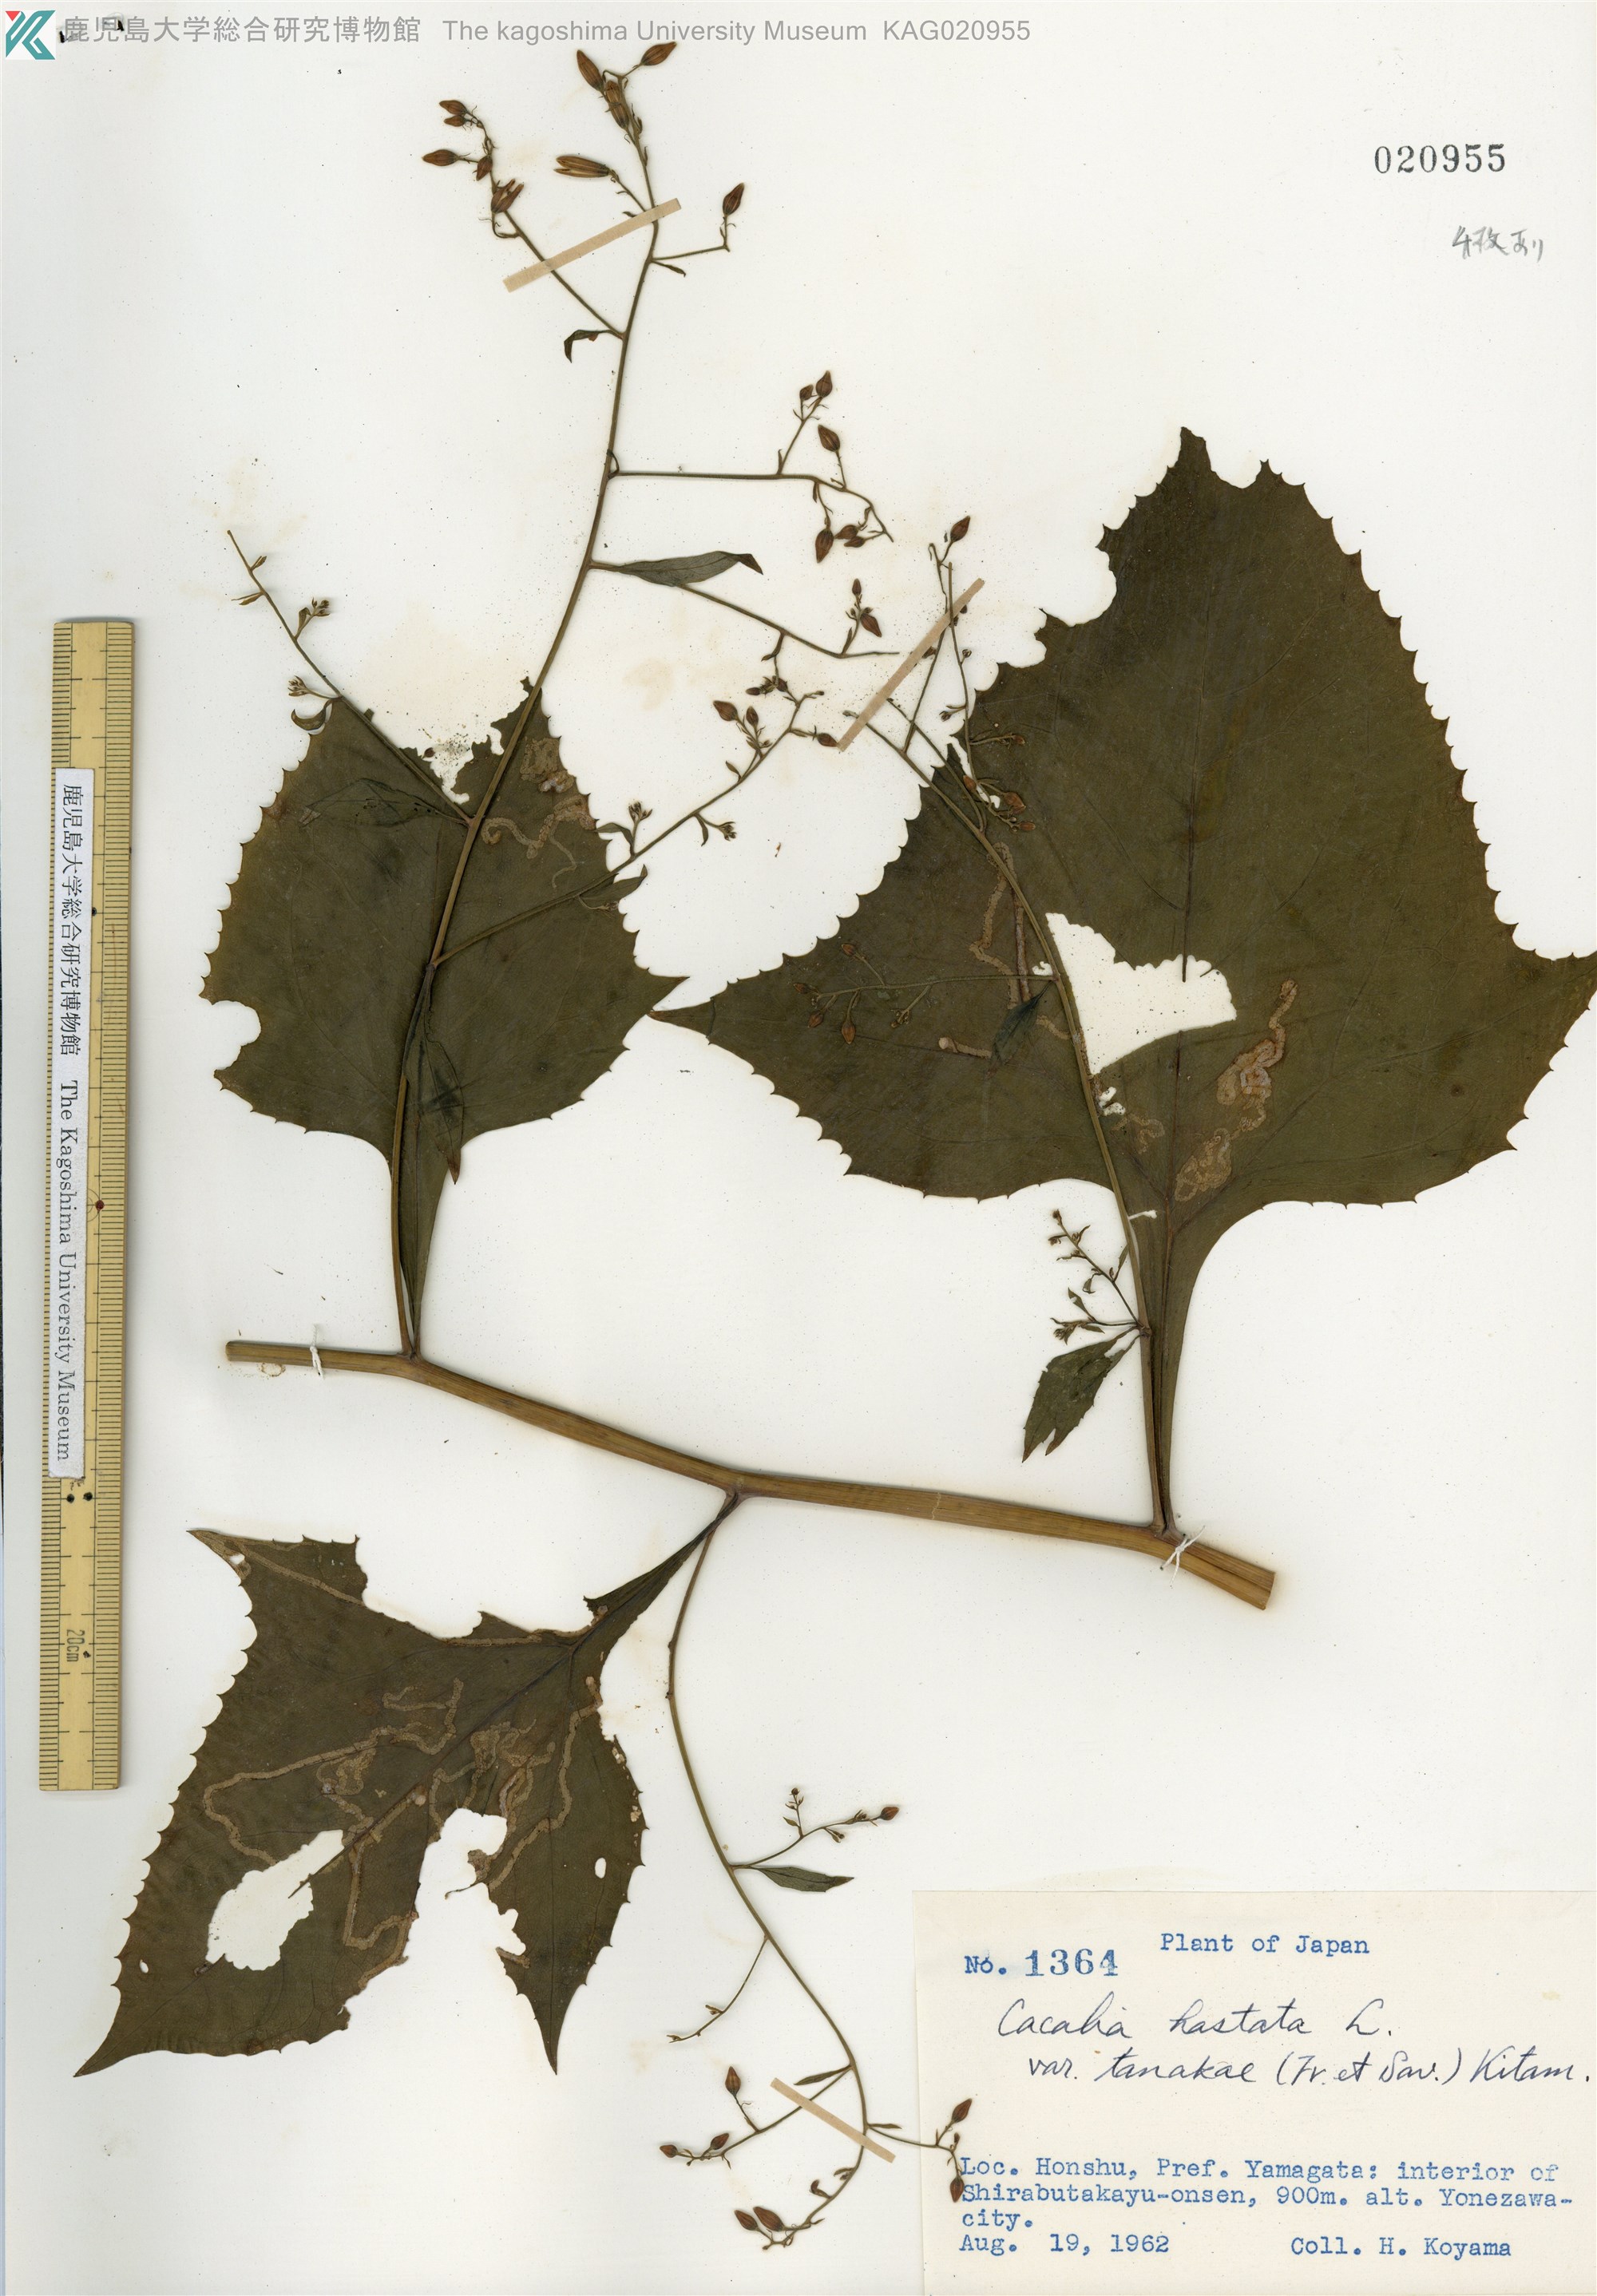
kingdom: Plantae
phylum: Tracheophyta
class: Magnoliopsida
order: Asterales
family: Asteraceae
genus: Parasenecio
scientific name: Parasenecio
